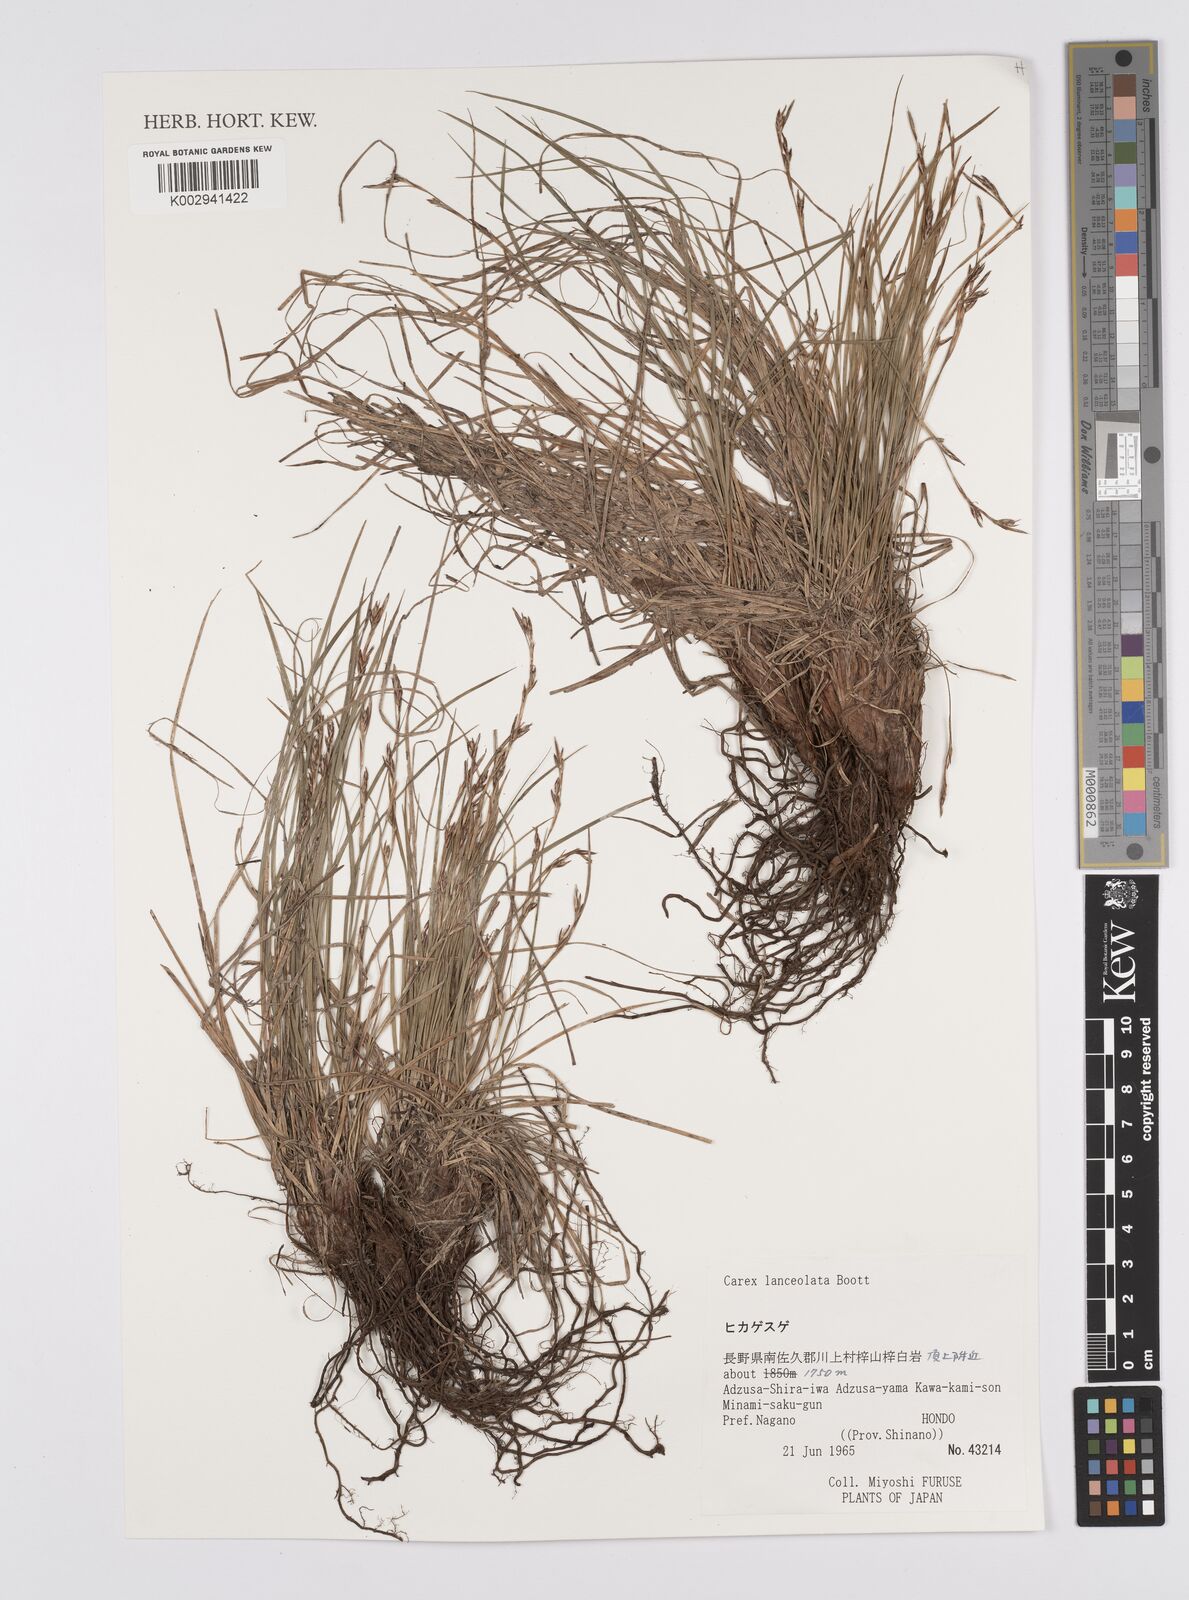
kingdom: Plantae
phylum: Tracheophyta
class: Liliopsida
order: Poales
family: Cyperaceae
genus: Carex
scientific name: Carex lanceolata
